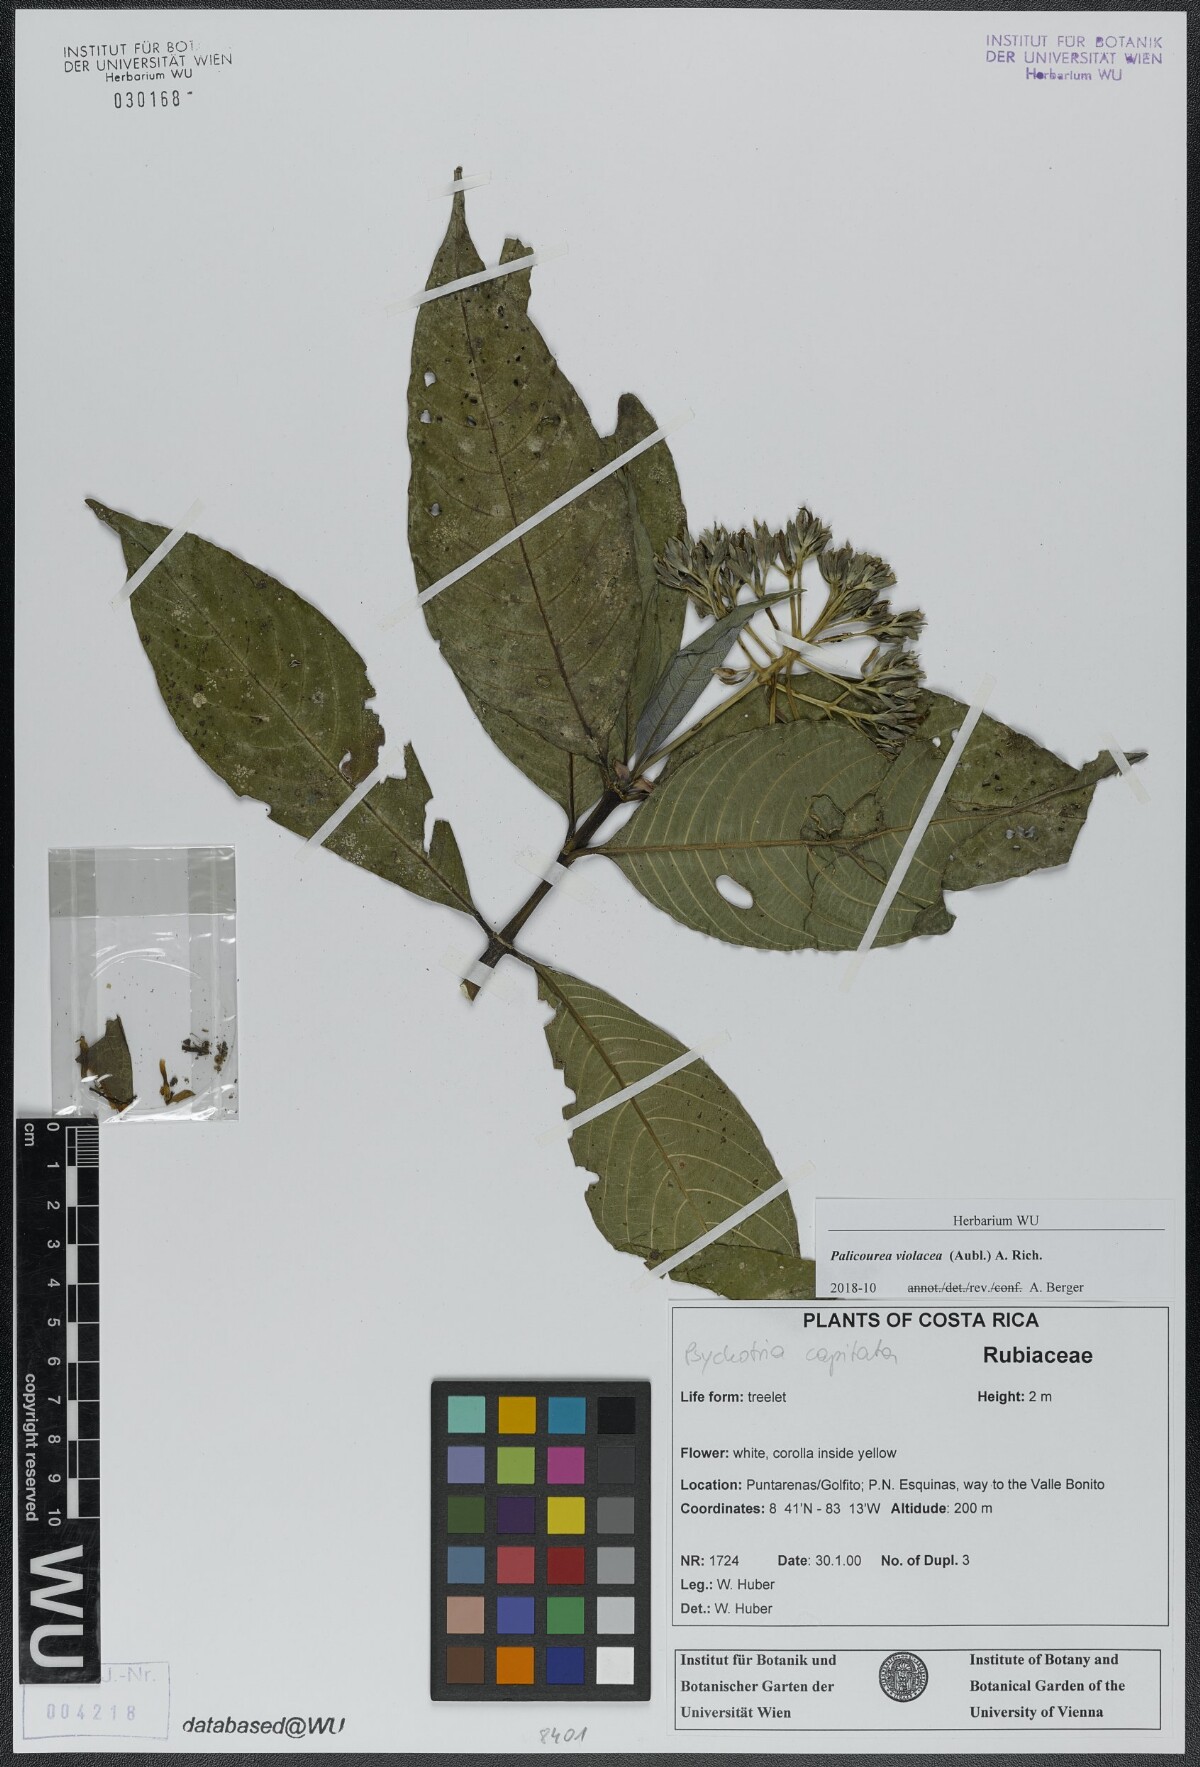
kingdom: Plantae
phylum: Tracheophyta
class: Magnoliopsida
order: Gentianales
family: Rubiaceae
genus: Palicourea
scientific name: Palicourea violacea
